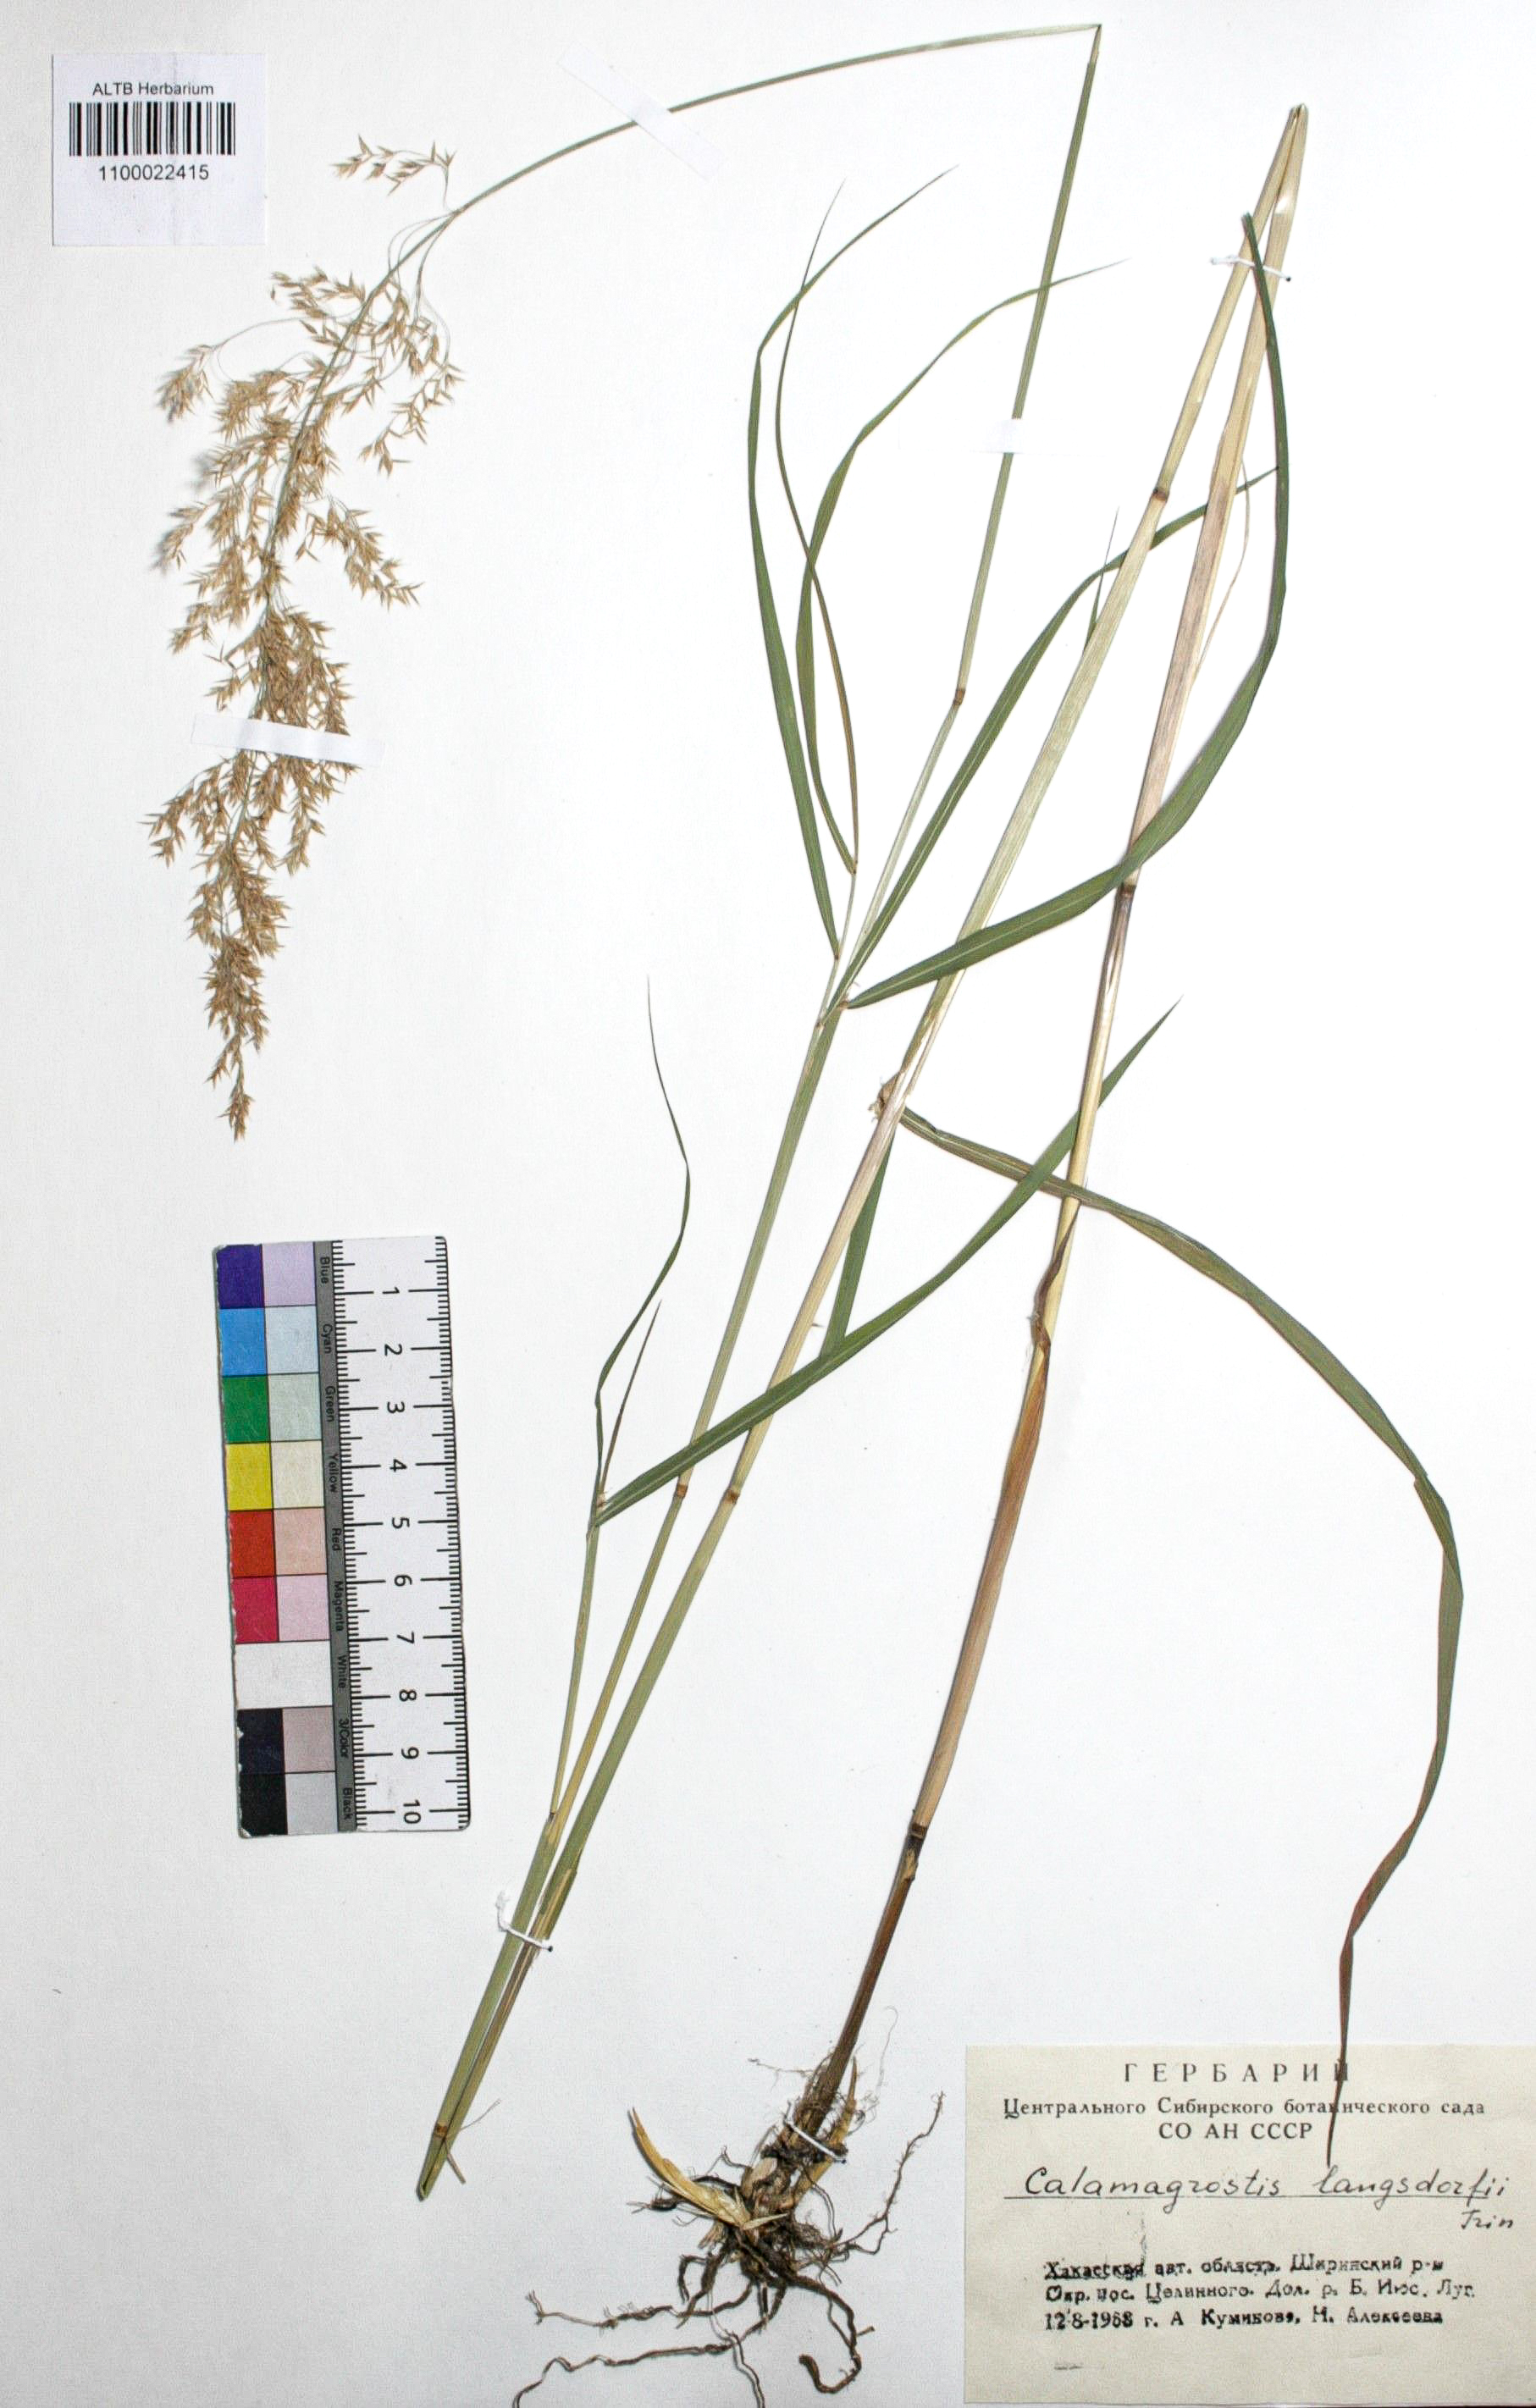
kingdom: Plantae
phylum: Tracheophyta
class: Liliopsida
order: Poales
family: Poaceae
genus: Calamagrostis
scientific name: Calamagrostis purpurea
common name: Scandinavian small-reed
